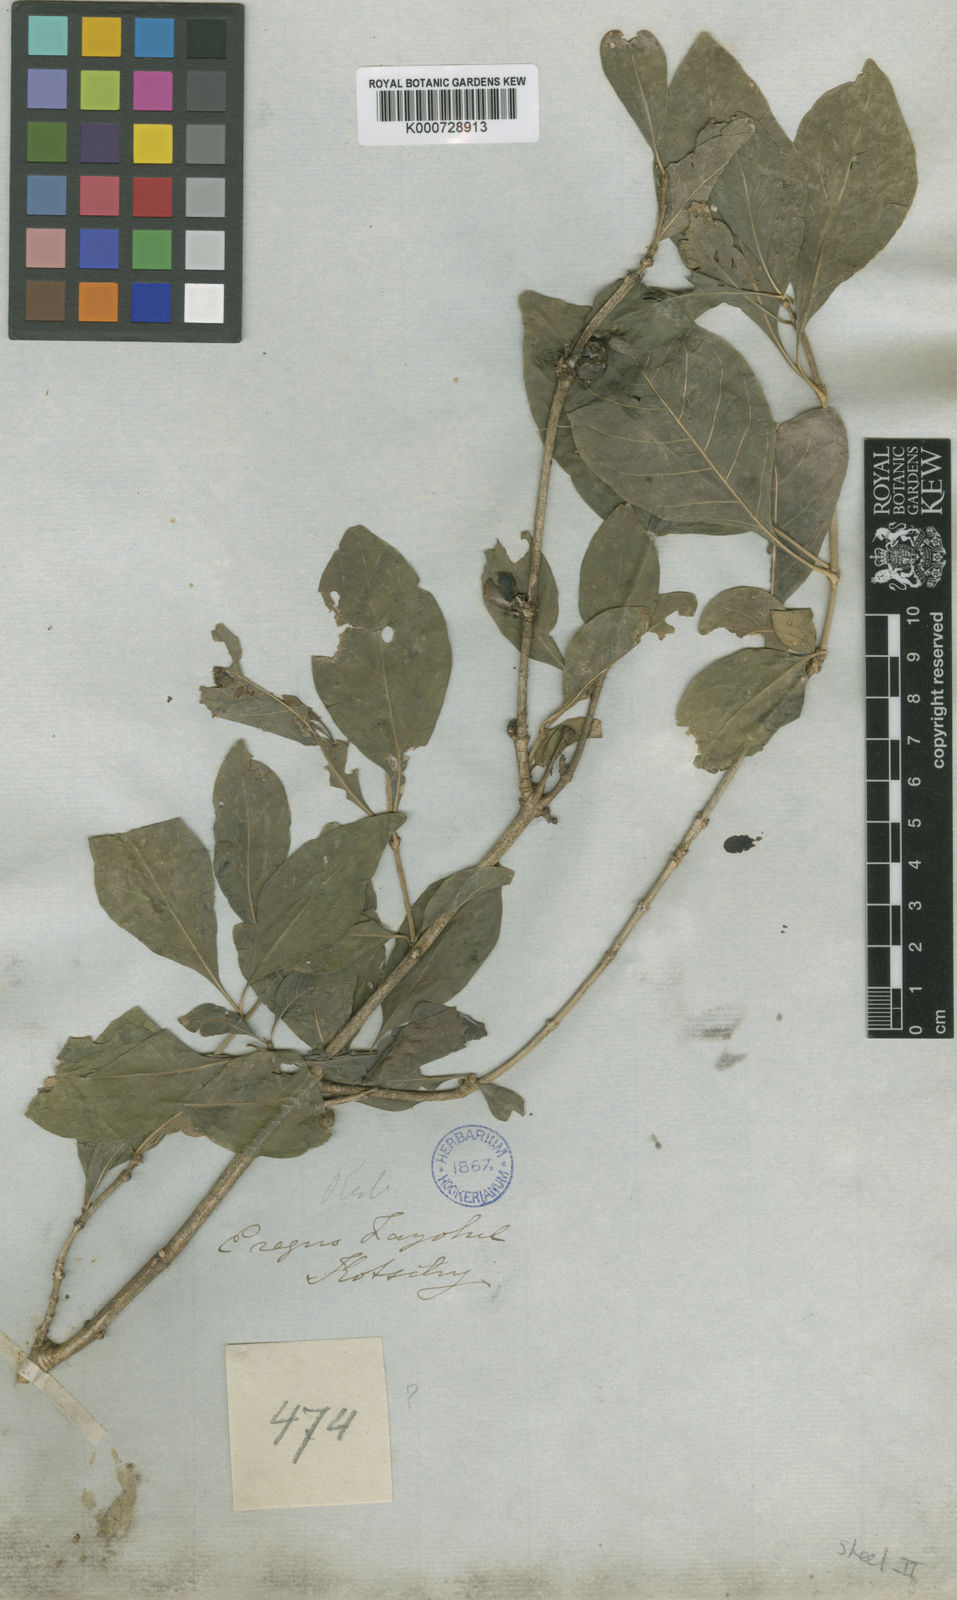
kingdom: Plantae
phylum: Tracheophyta
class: Magnoliopsida
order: Gentianales
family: Rubiaceae
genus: Pavetta
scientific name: Pavetta subcana
